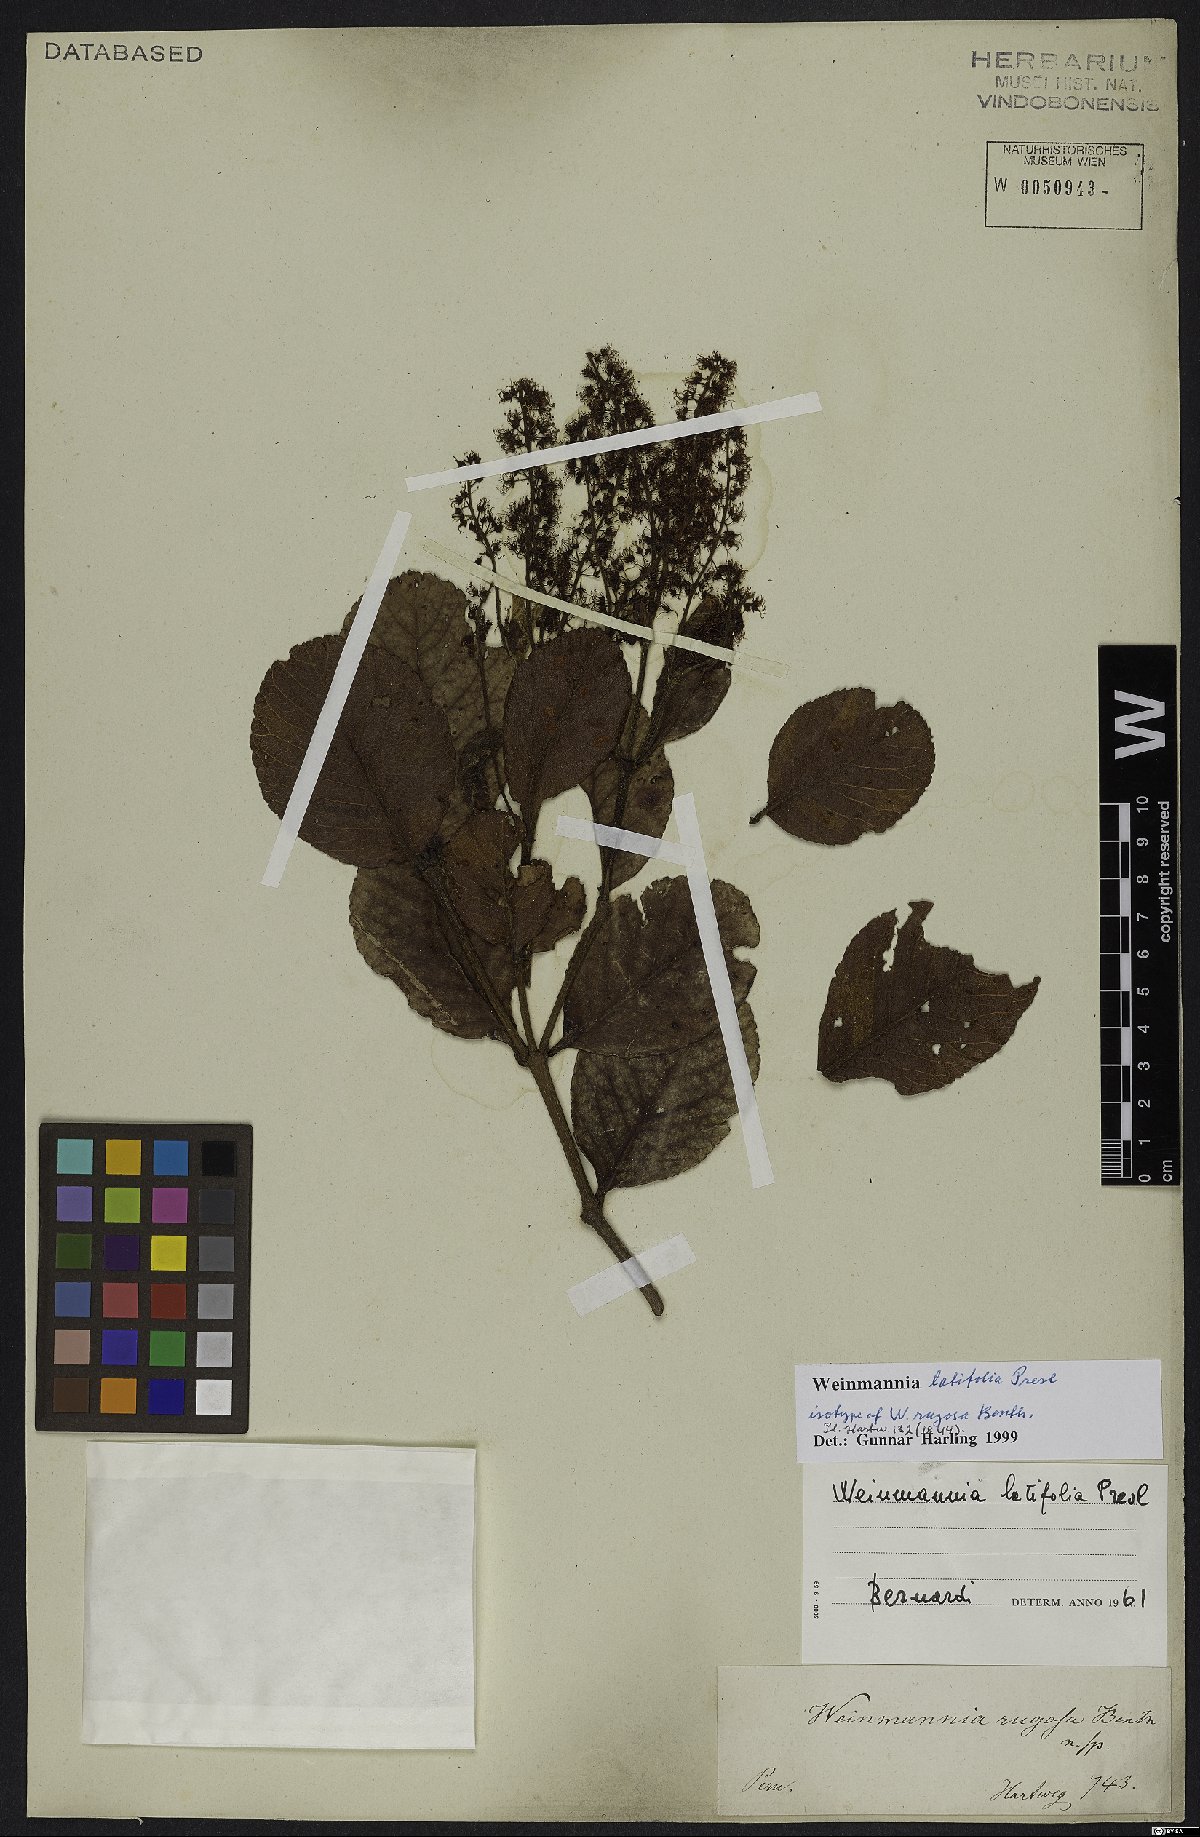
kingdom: Plantae
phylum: Tracheophyta
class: Magnoliopsida
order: Oxalidales
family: Cunoniaceae
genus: Weinmannia
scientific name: Weinmannia latifolia
